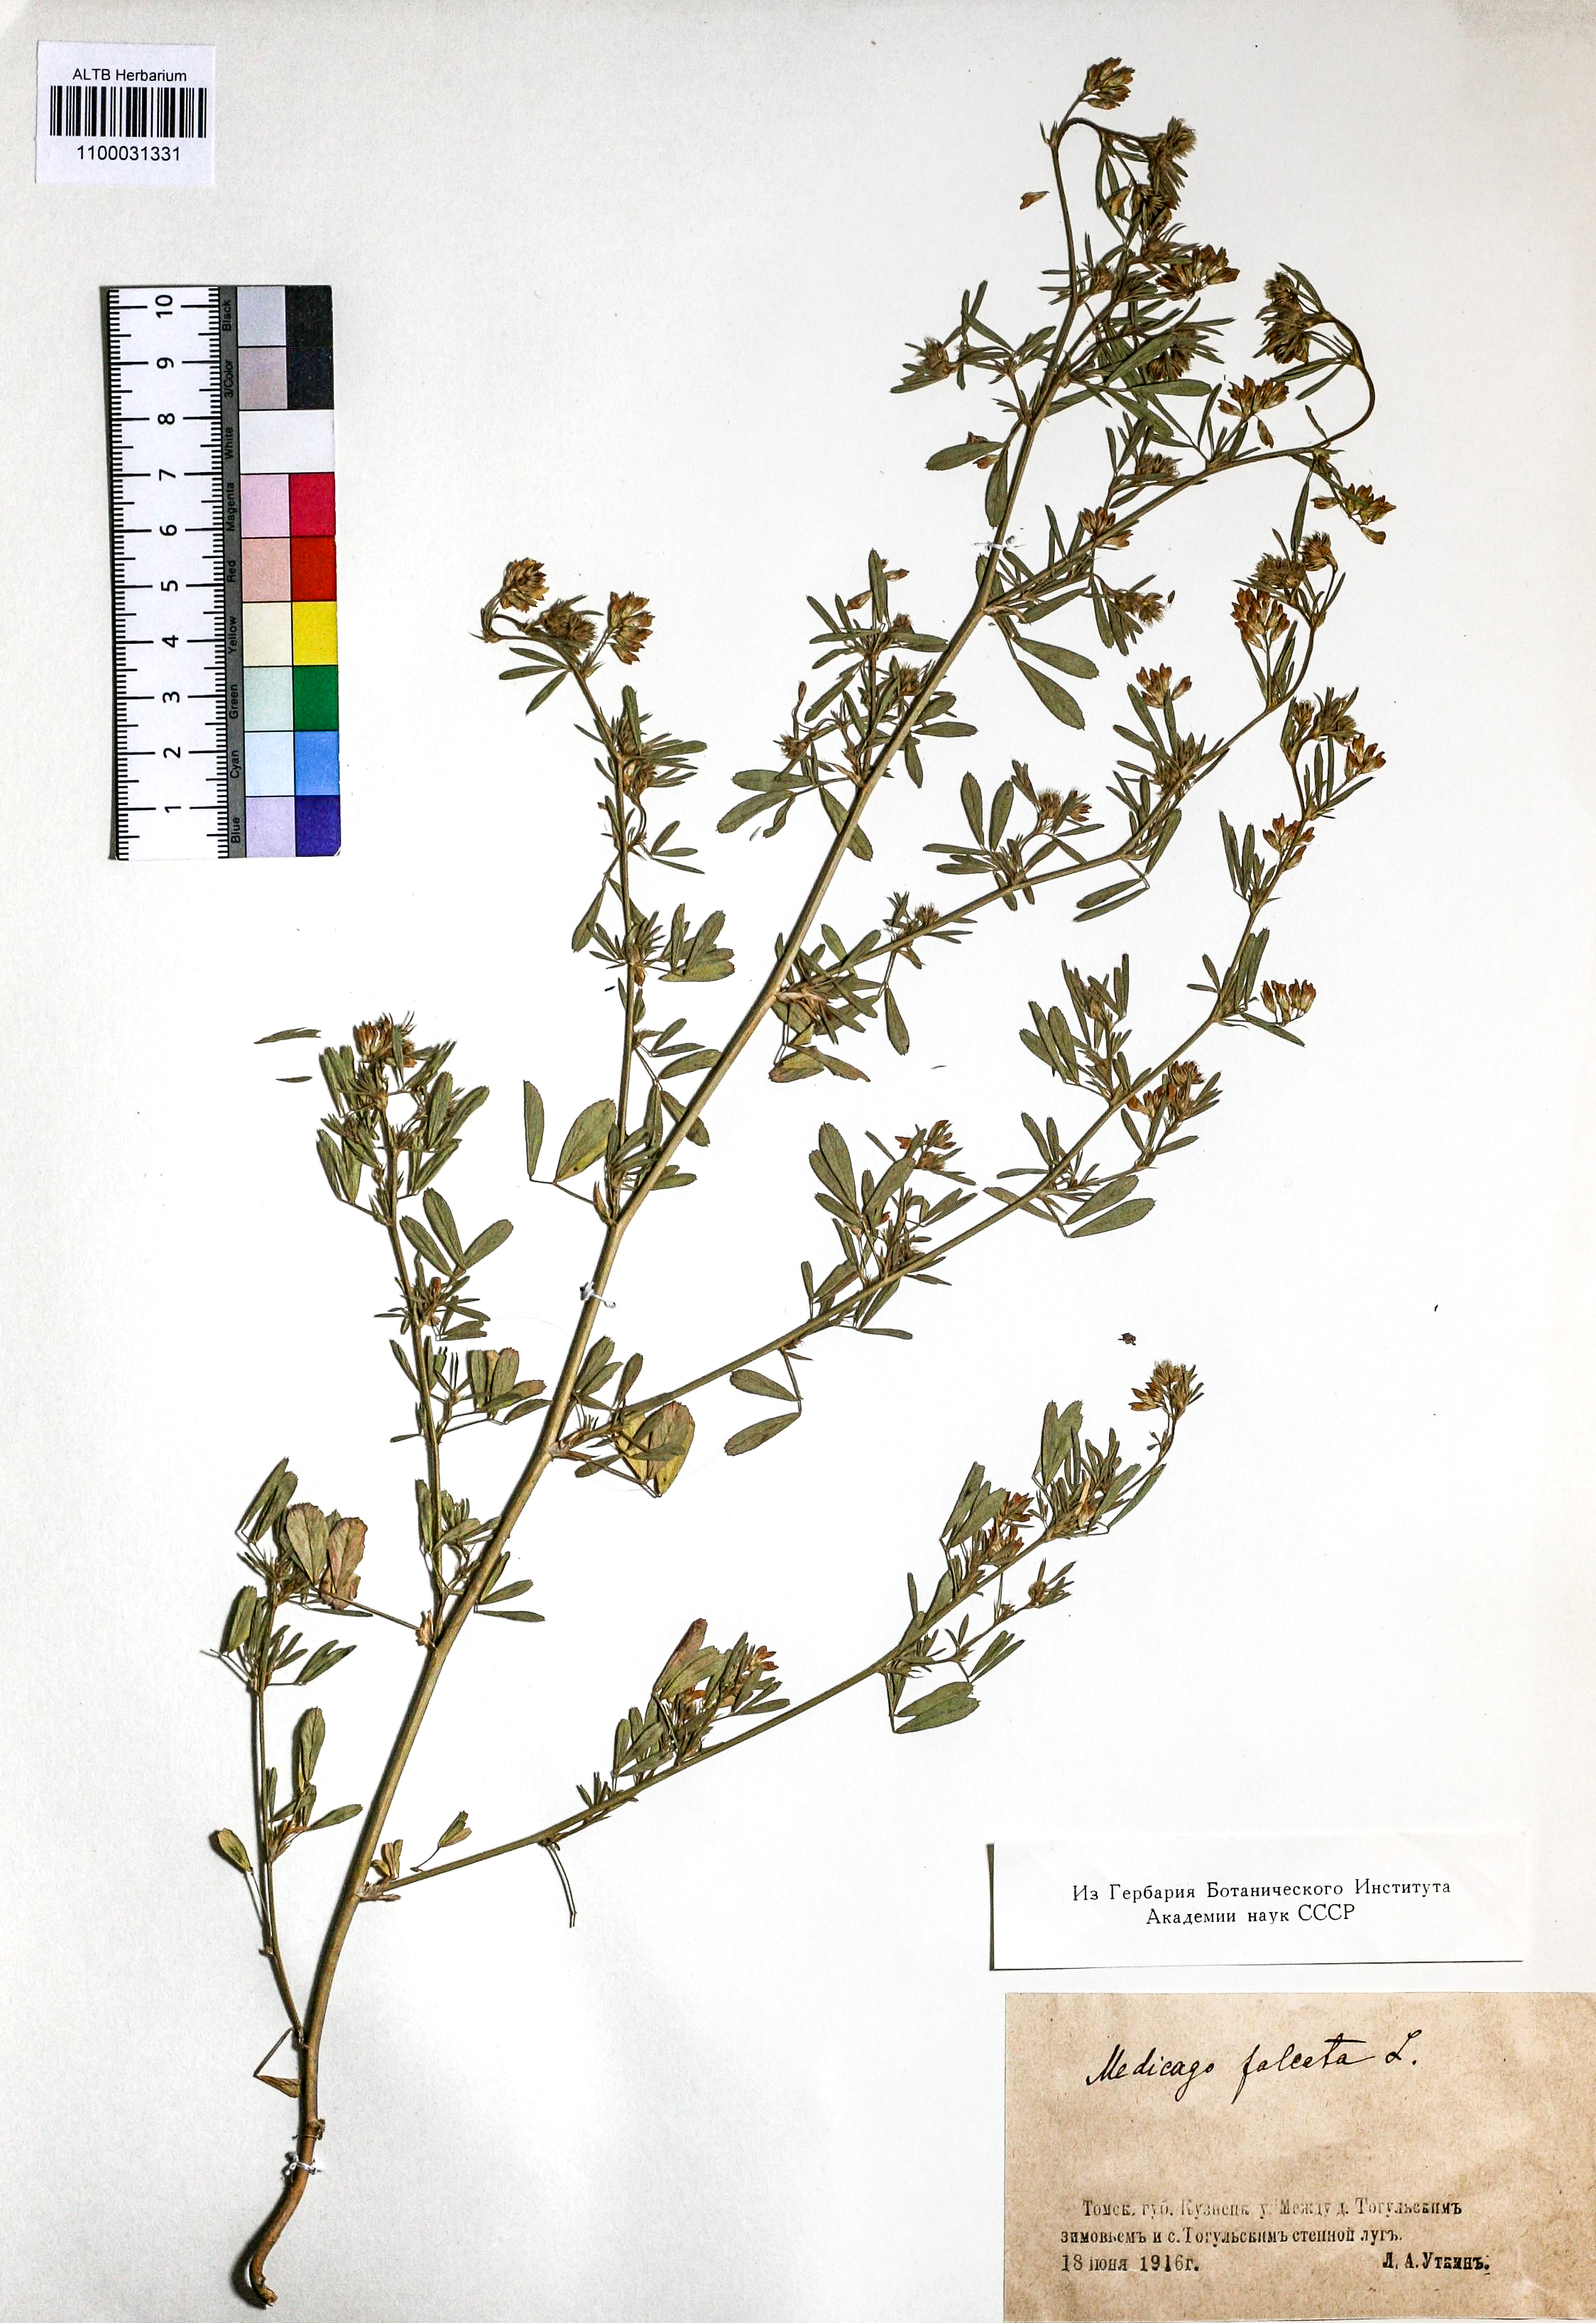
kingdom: Plantae
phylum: Tracheophyta
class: Magnoliopsida
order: Fabales
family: Fabaceae
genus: Medicago
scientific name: Medicago falcata
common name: Sickle medick
